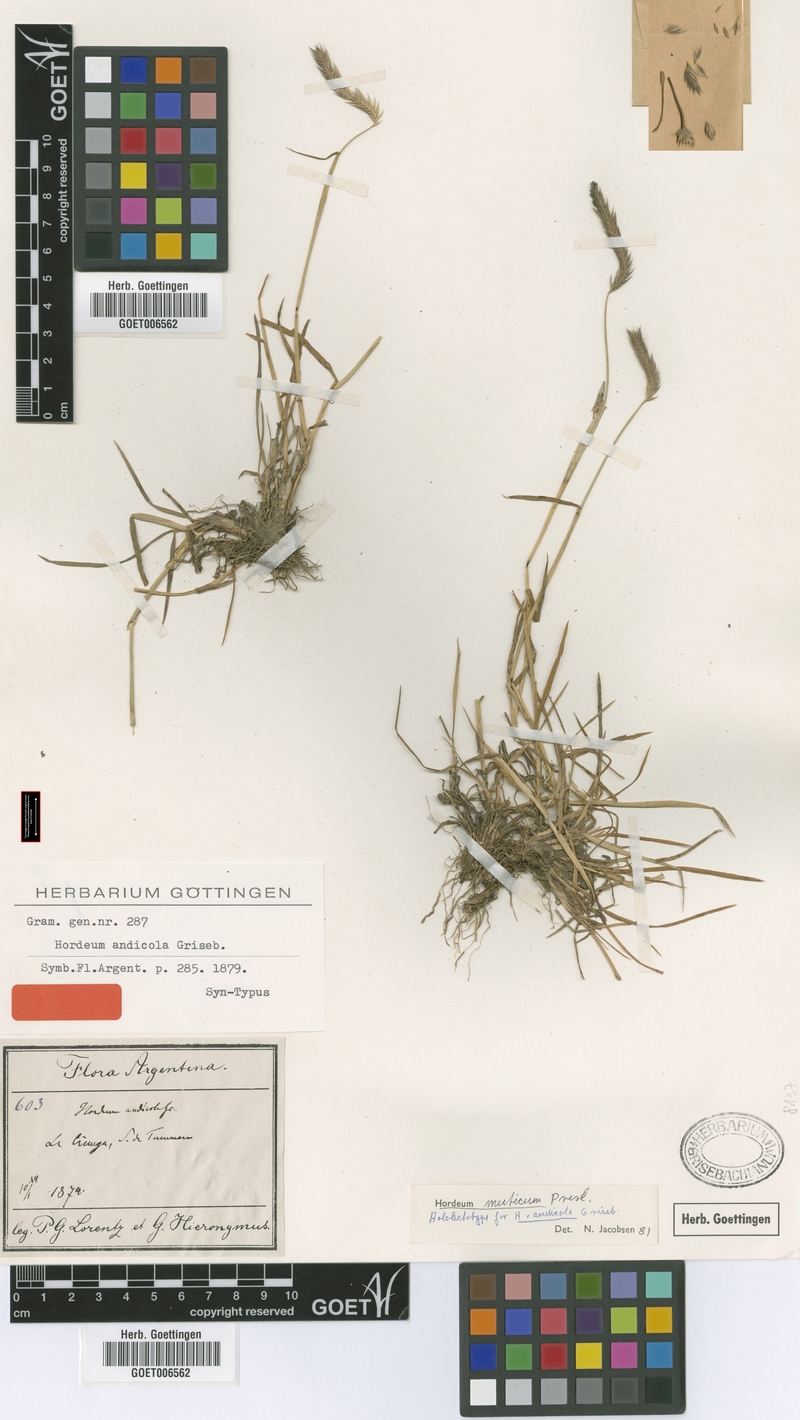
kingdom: Plantae
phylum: Tracheophyta
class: Liliopsida
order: Poales
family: Poaceae
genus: Hordeum
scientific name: Hordeum muticum
